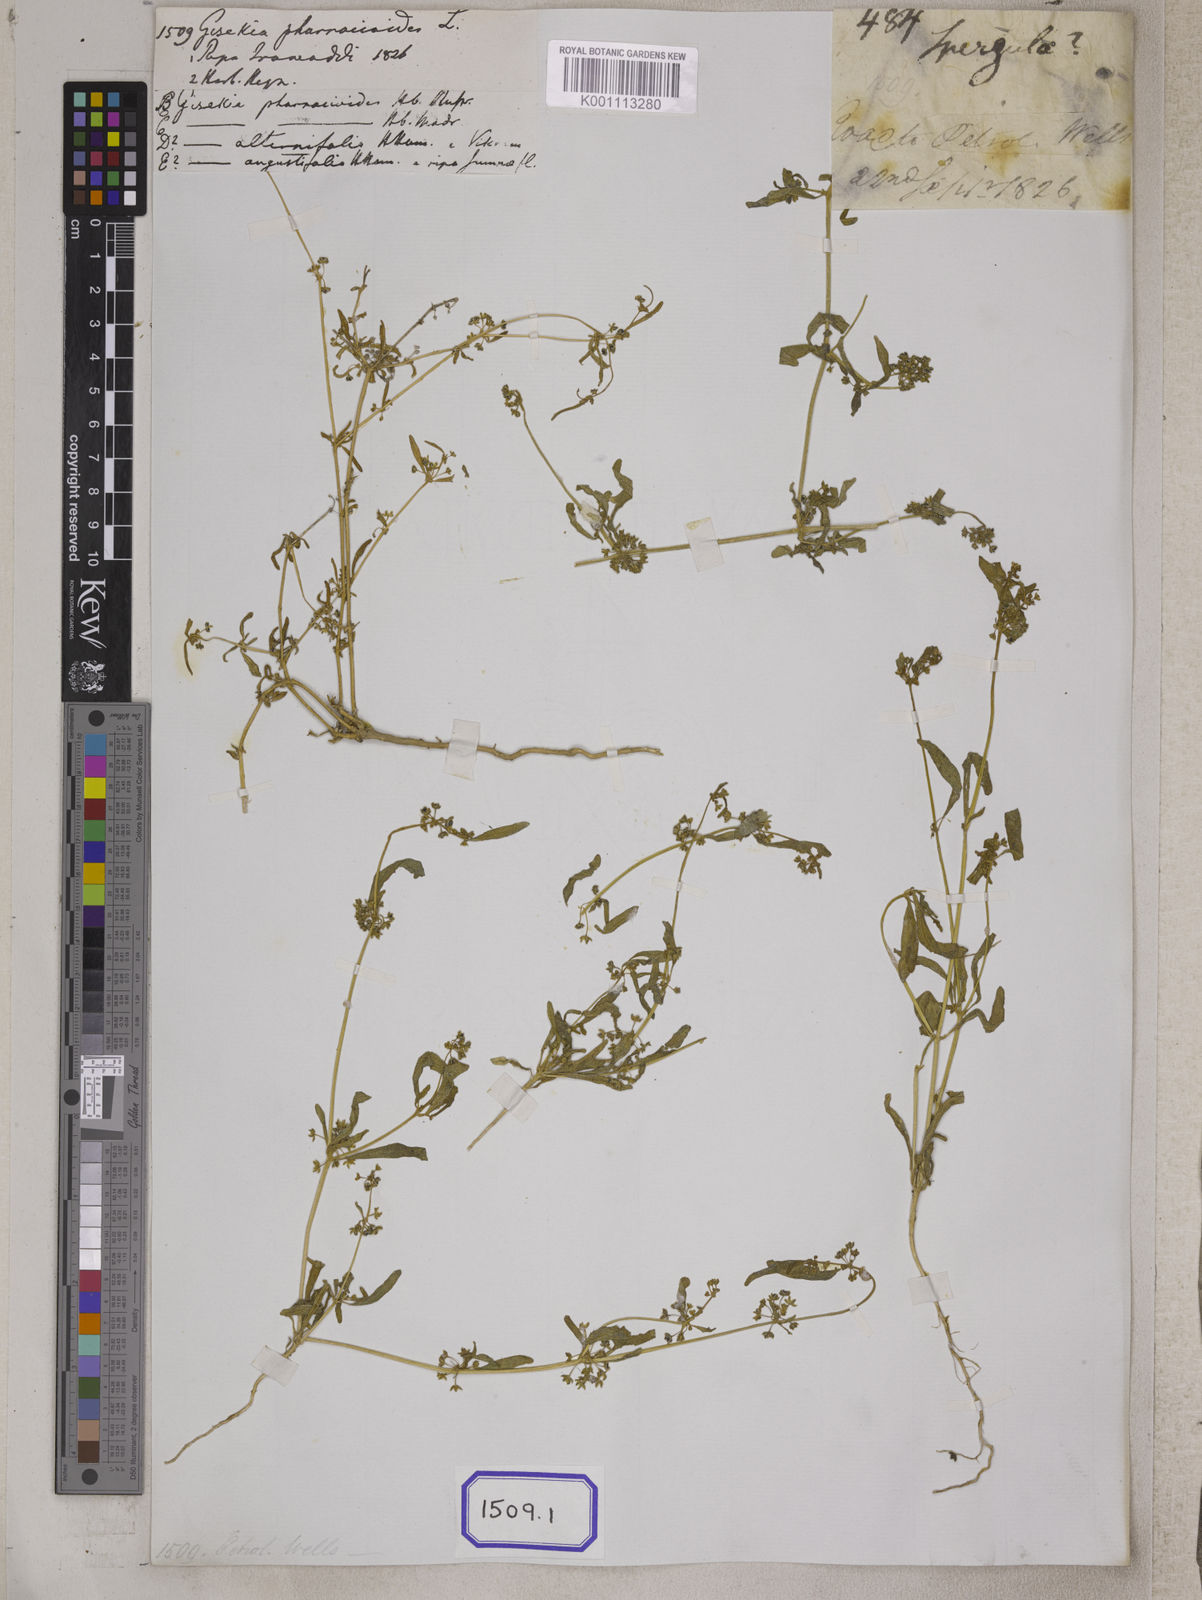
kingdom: Plantae
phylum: Tracheophyta
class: Magnoliopsida
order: Caryophyllales
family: Gisekiaceae
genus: Gisekia
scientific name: Gisekia
